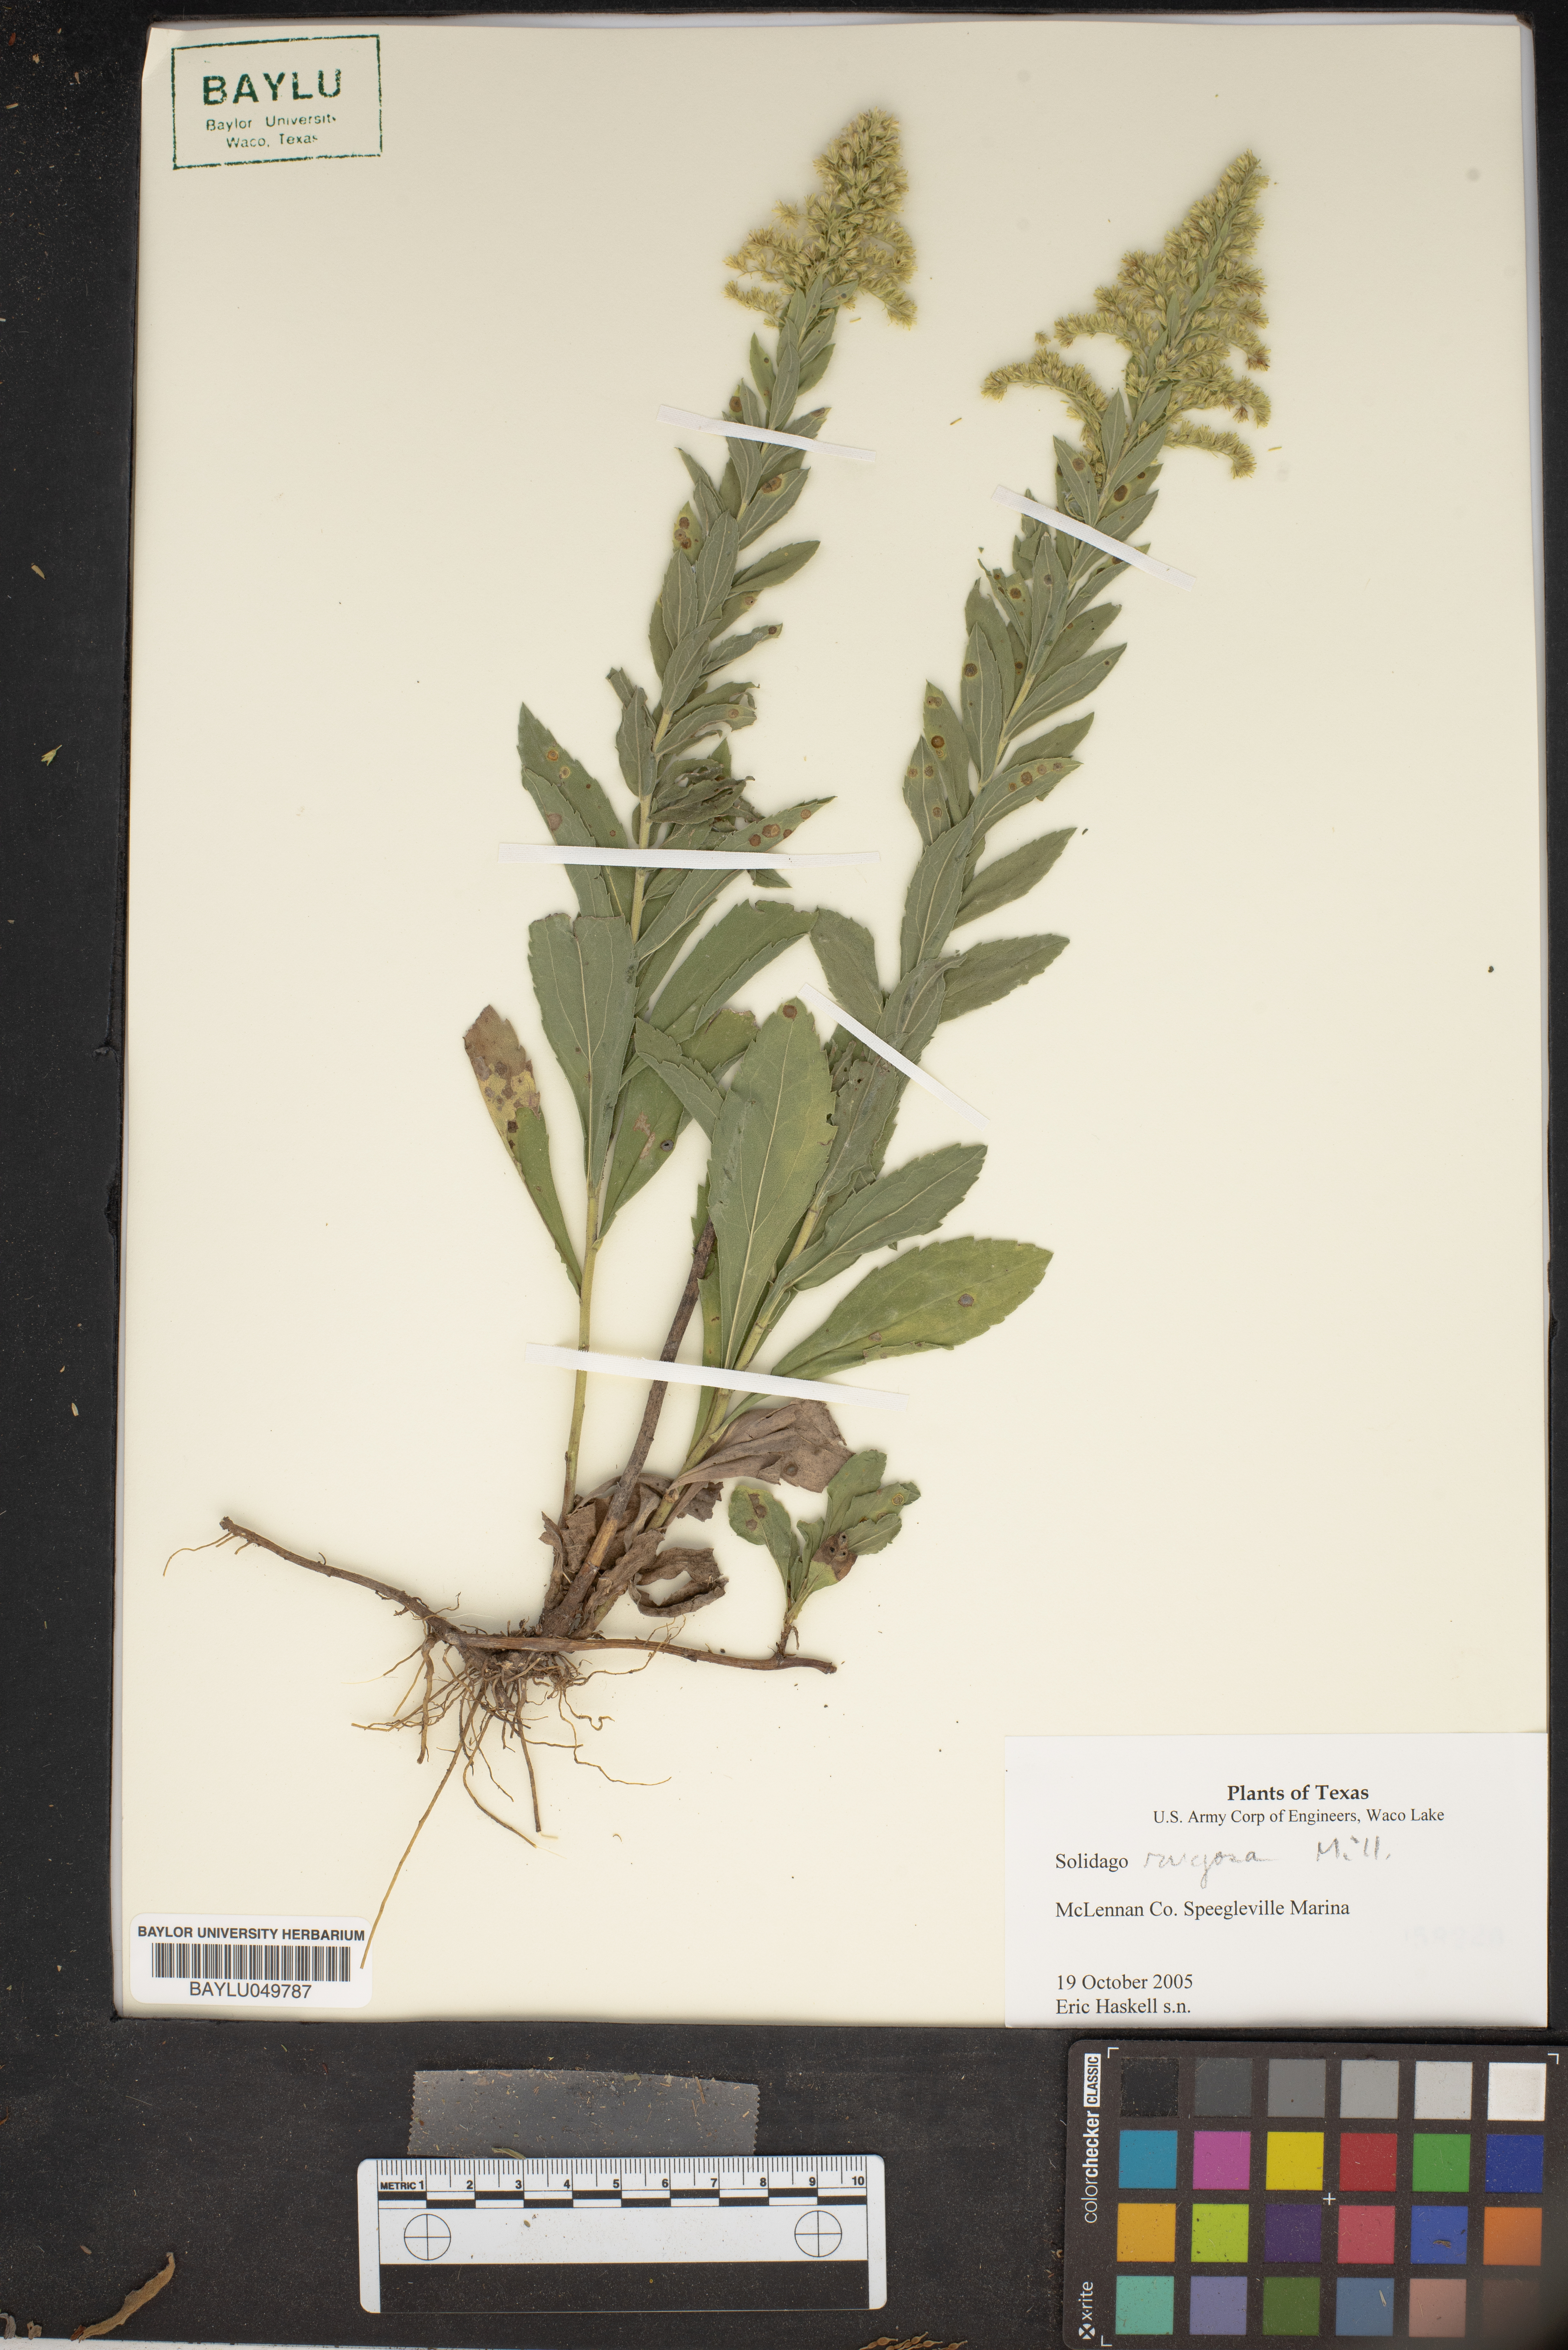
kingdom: Plantae
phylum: Tracheophyta
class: Magnoliopsida
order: Asterales
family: Asteraceae
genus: Solidago
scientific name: Solidago rugosa
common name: Rough-stemmed goldenrod
